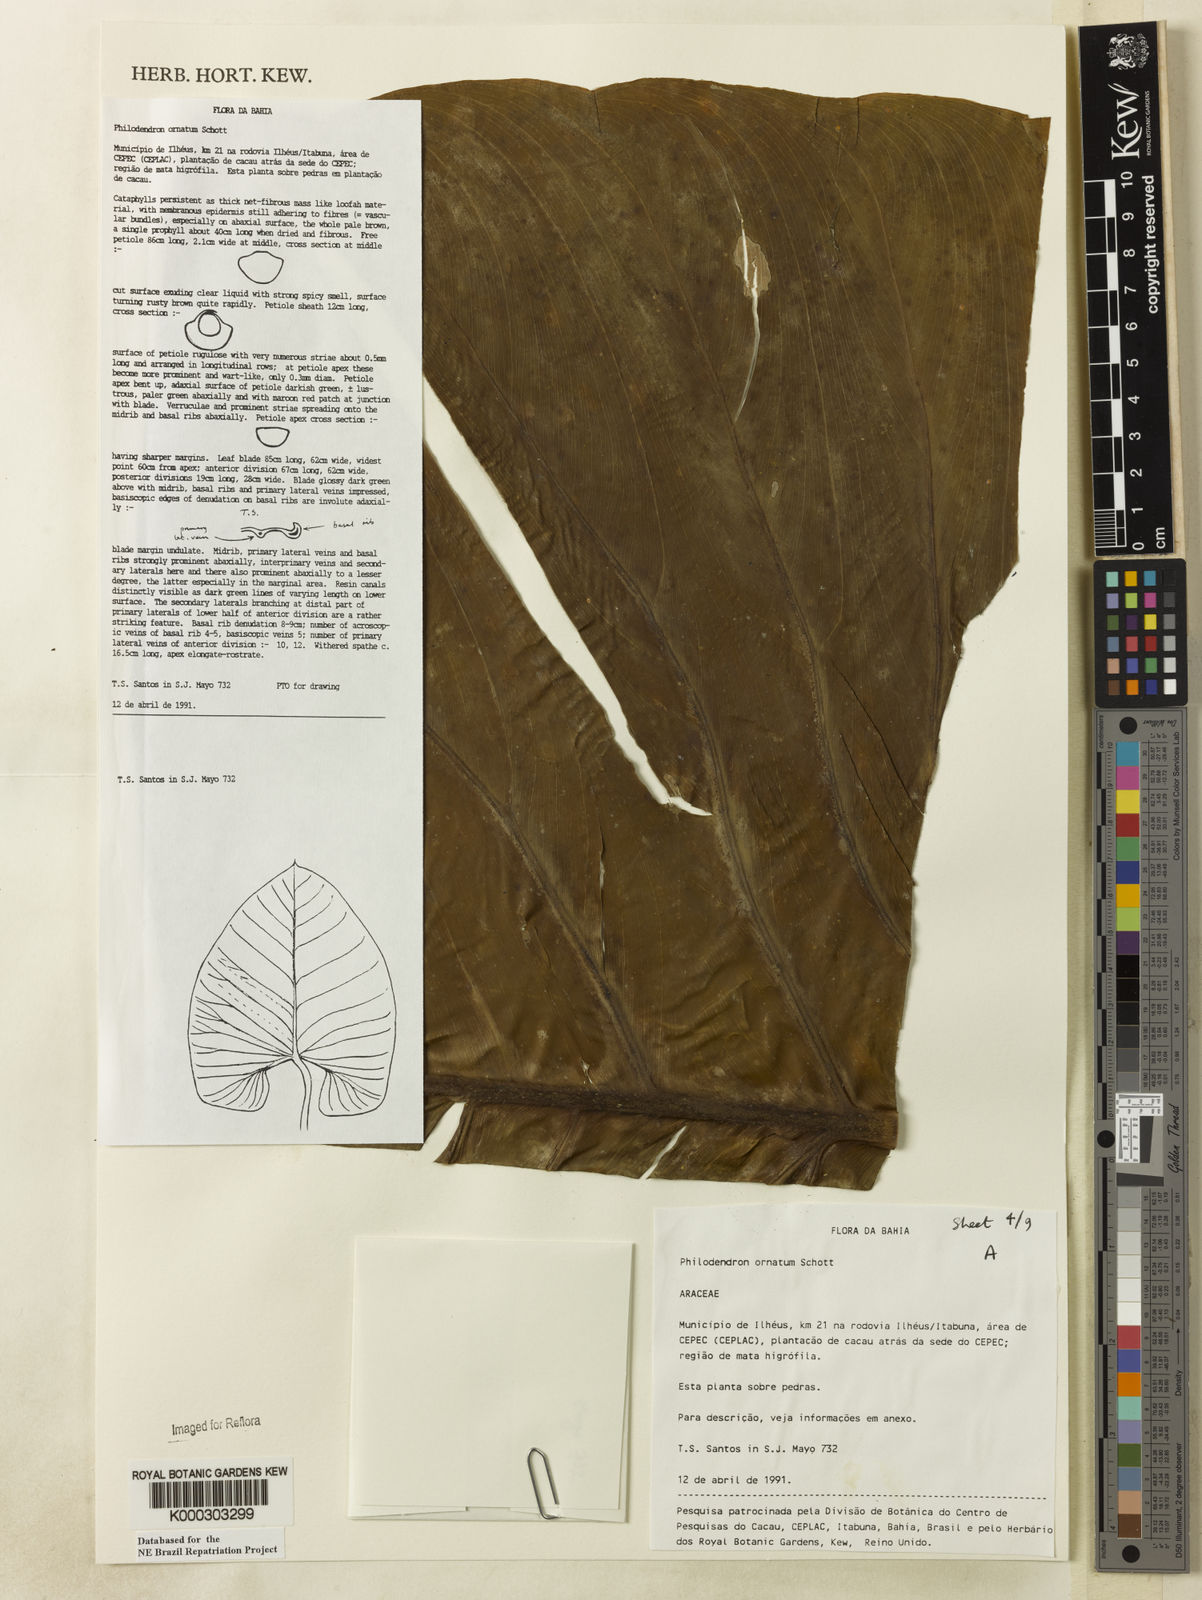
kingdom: Plantae
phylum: Tracheophyta
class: Liliopsida
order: Alismatales
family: Araceae
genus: Philodendron
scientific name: Philodendron ornatum
